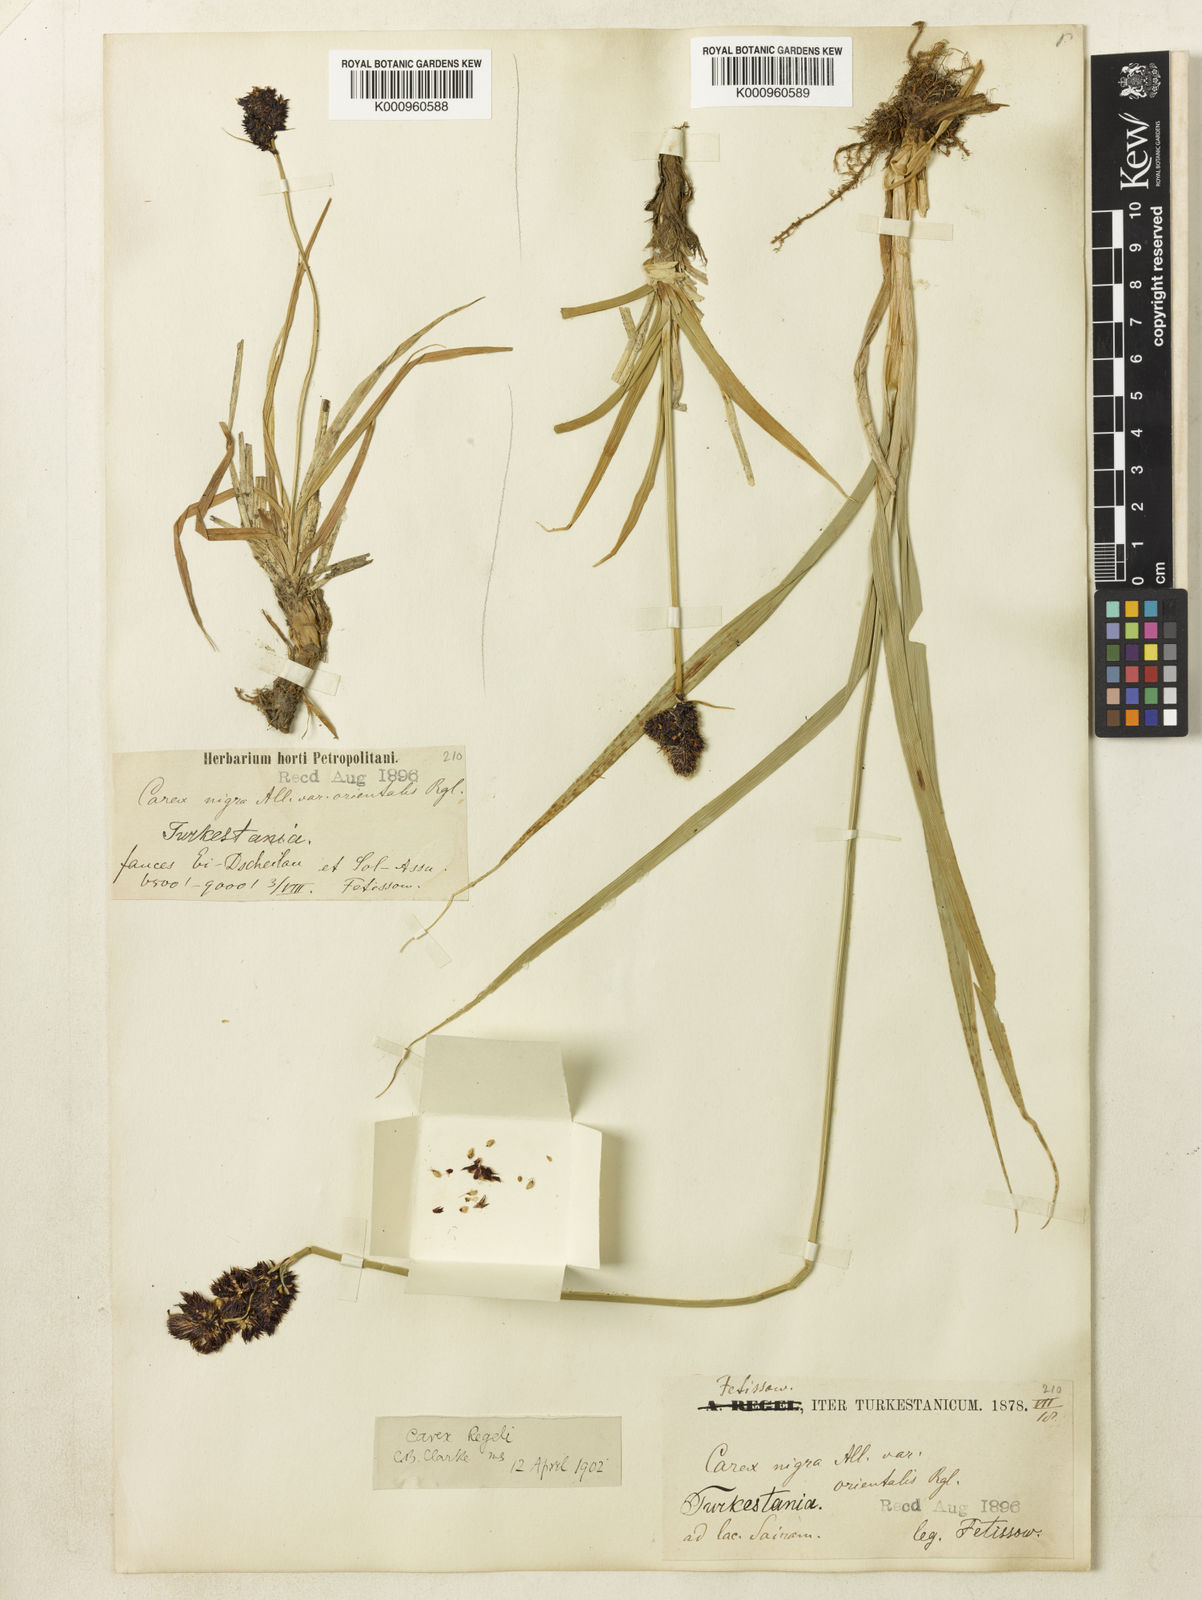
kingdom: Plantae
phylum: Tracheophyta
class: Liliopsida
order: Poales
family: Cyperaceae
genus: Carex
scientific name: Carex melanantha
